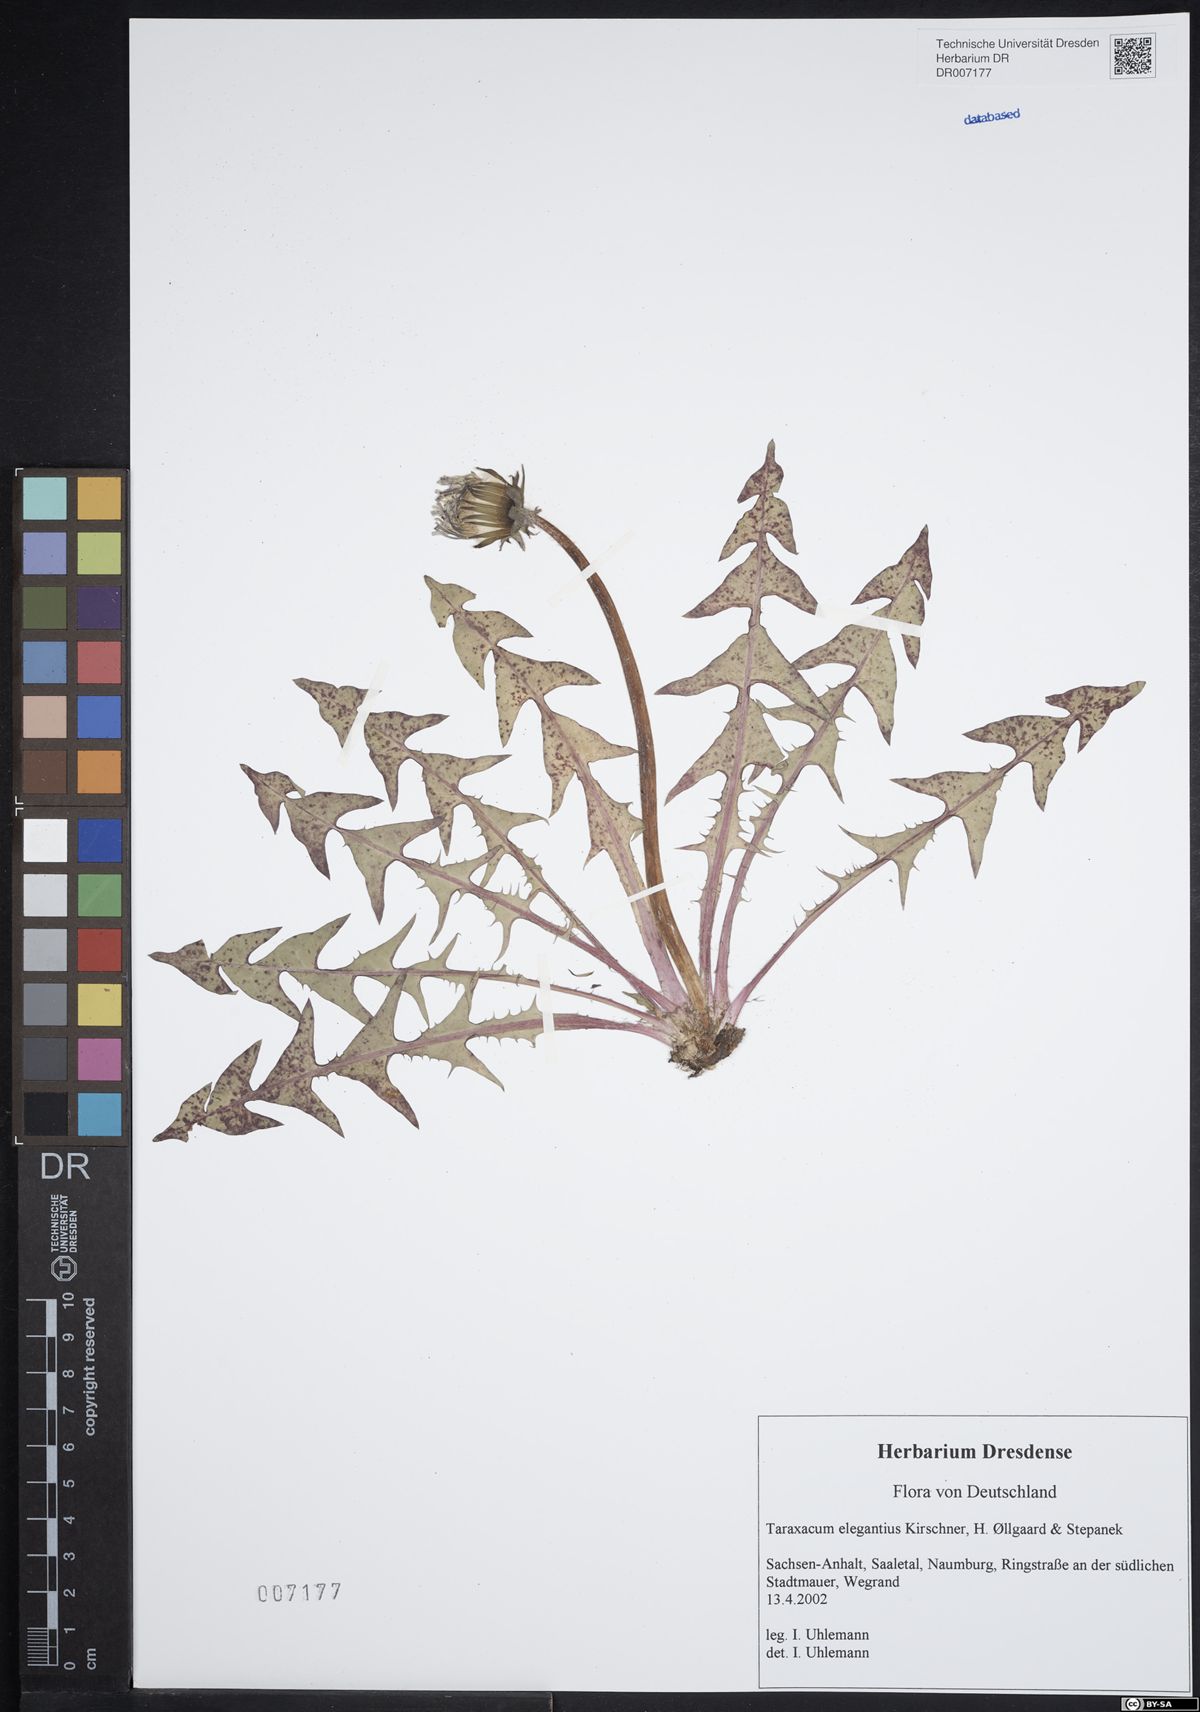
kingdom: Plantae
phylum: Tracheophyta
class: Magnoliopsida
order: Asterales
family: Asteraceae
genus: Taraxacum
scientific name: Taraxacum elegantius
